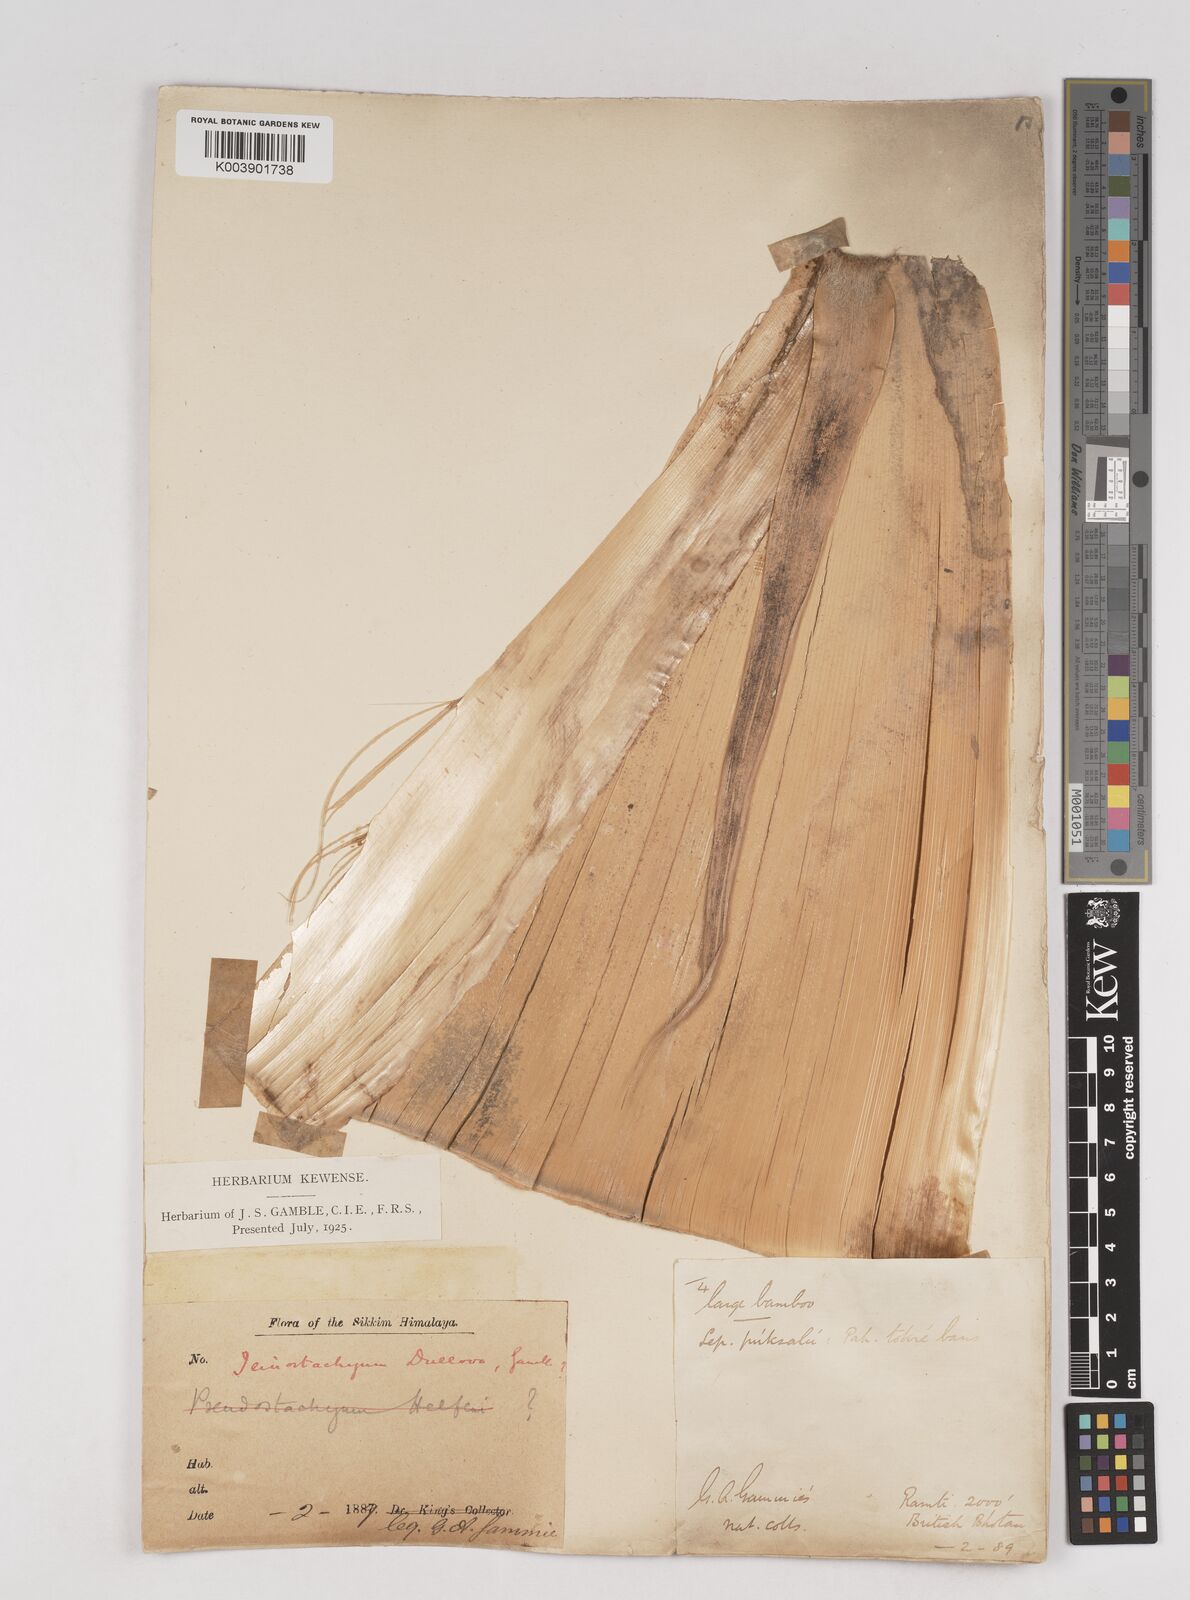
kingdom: Plantae
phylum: Tracheophyta
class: Liliopsida
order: Poales
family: Poaceae
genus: Schizostachyum
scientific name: Schizostachyum dullooa
